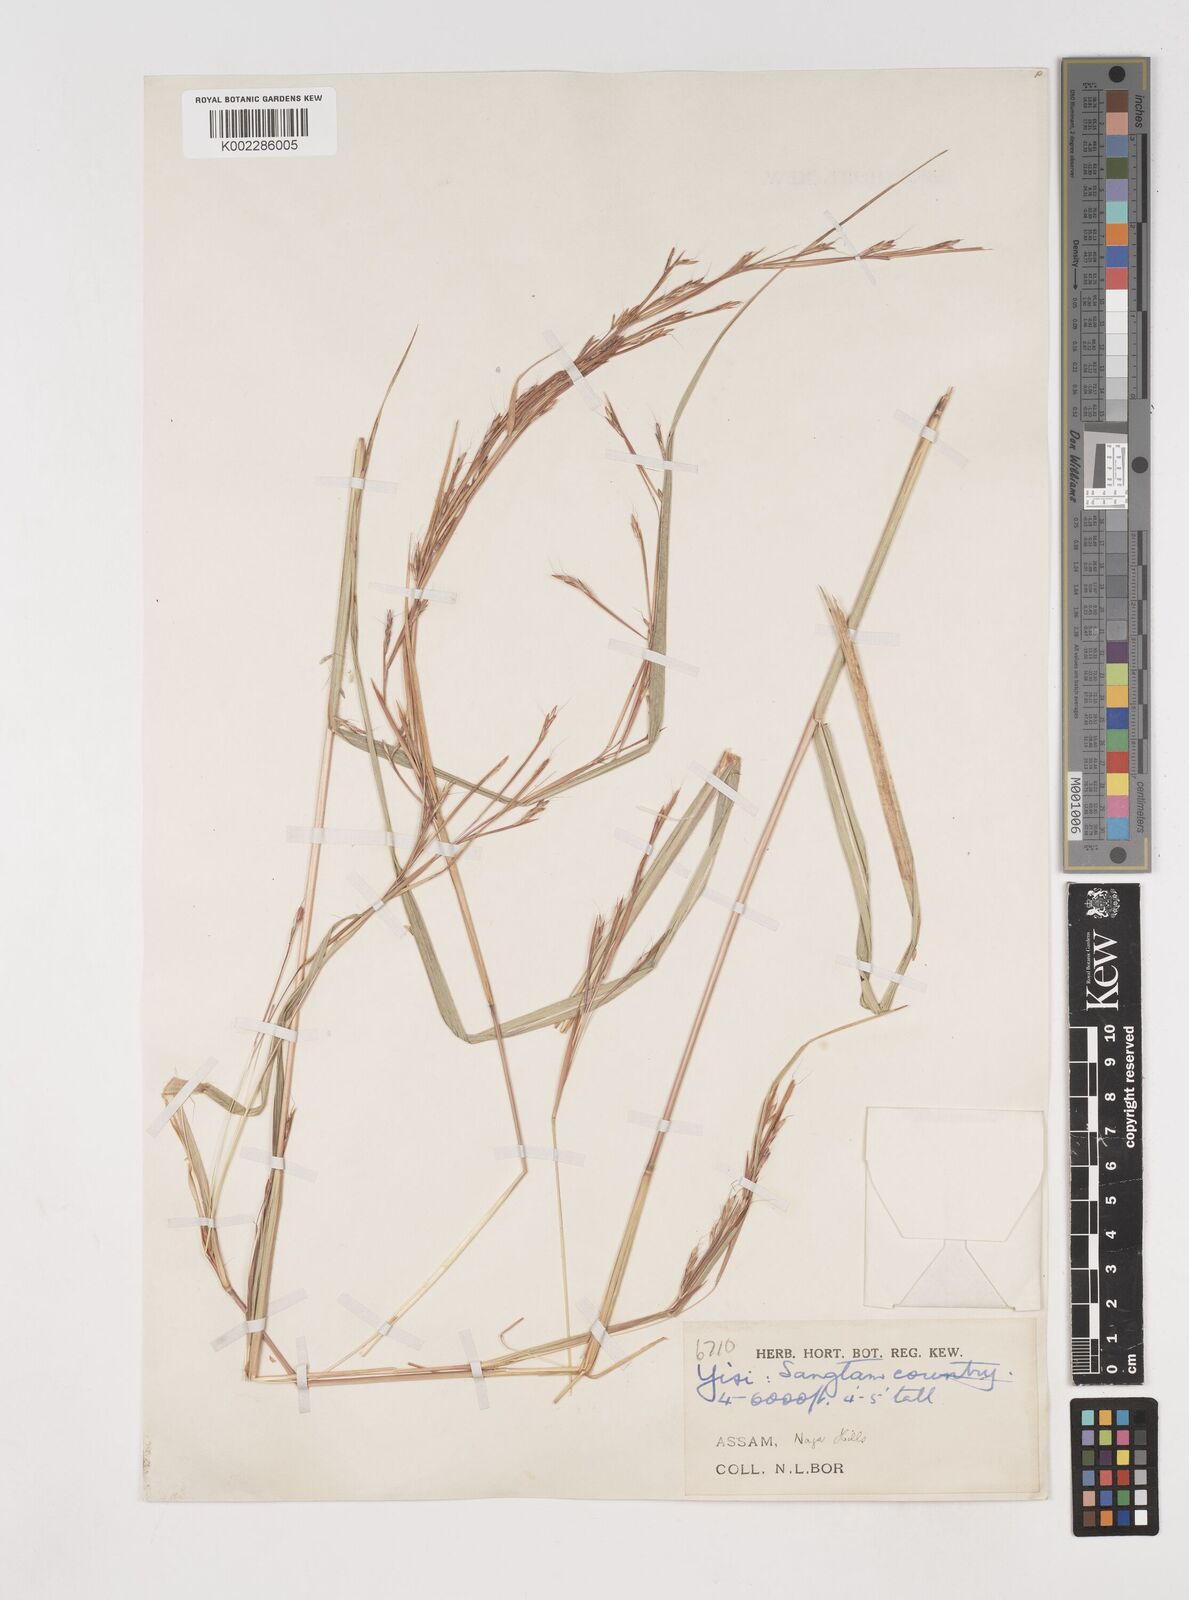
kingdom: Plantae
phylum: Tracheophyta
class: Liliopsida
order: Poales
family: Poaceae
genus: Schizachyrium
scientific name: Schizachyrium delavayi
